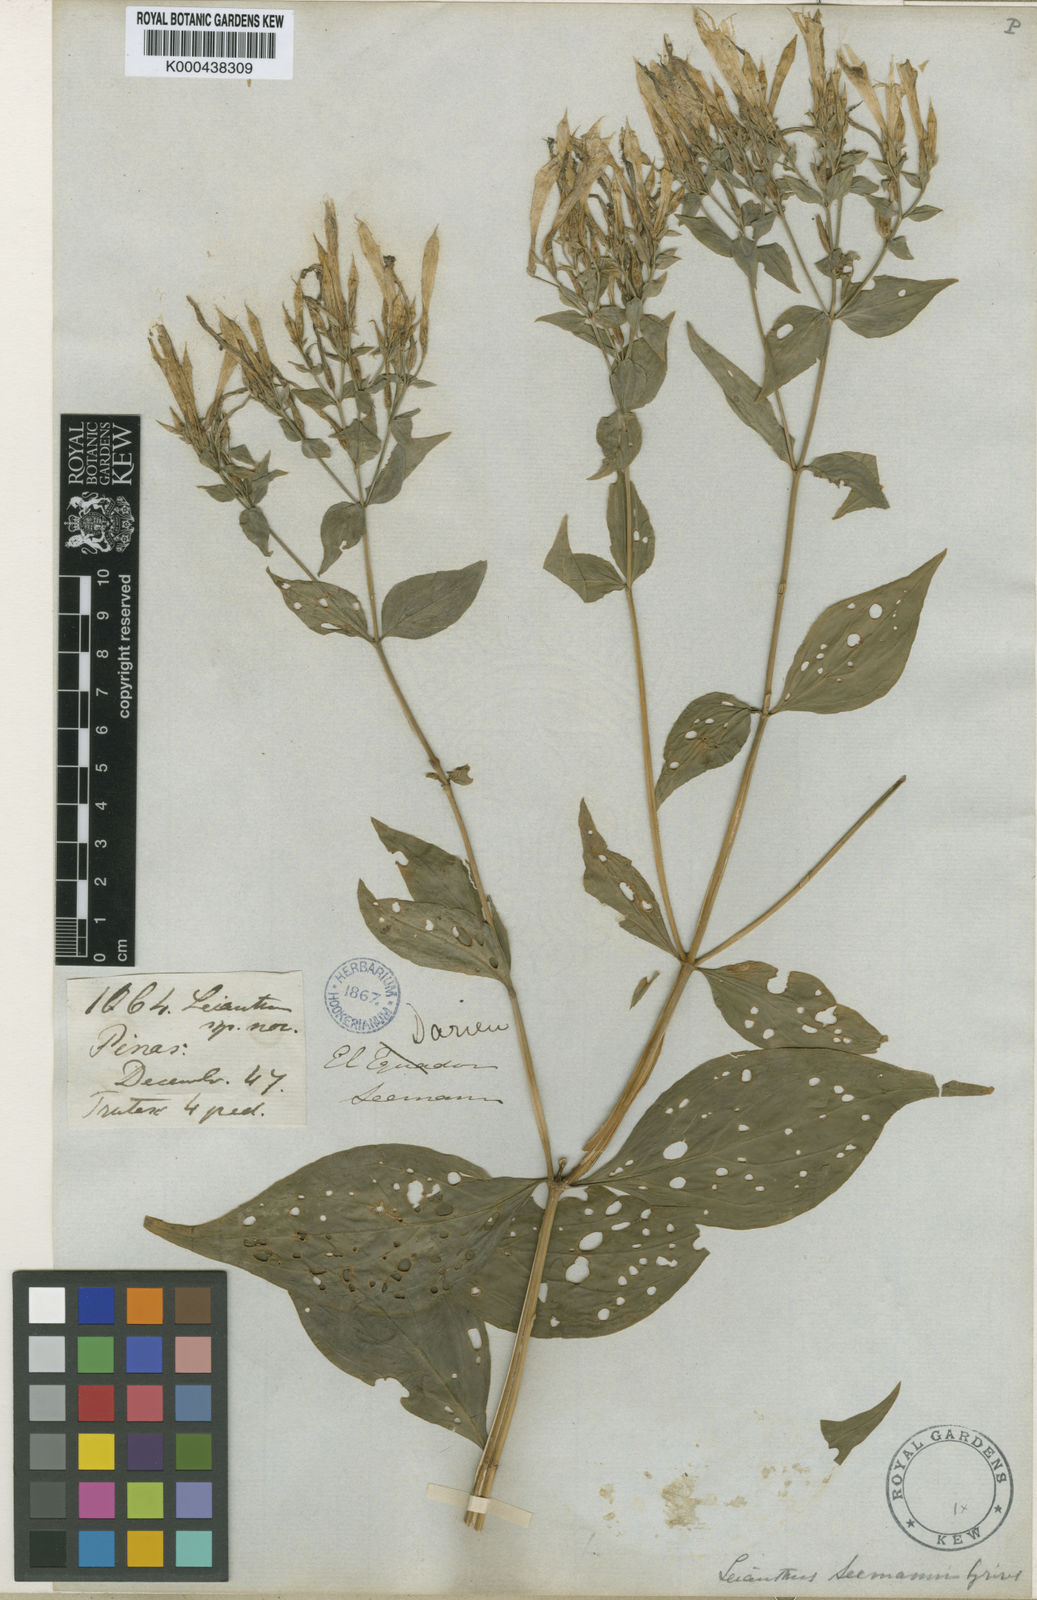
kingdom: Plantae
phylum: Tracheophyta
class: Magnoliopsida
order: Gentianales
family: Gentianaceae
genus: Lisianthus
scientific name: Lisianthus seemannii
